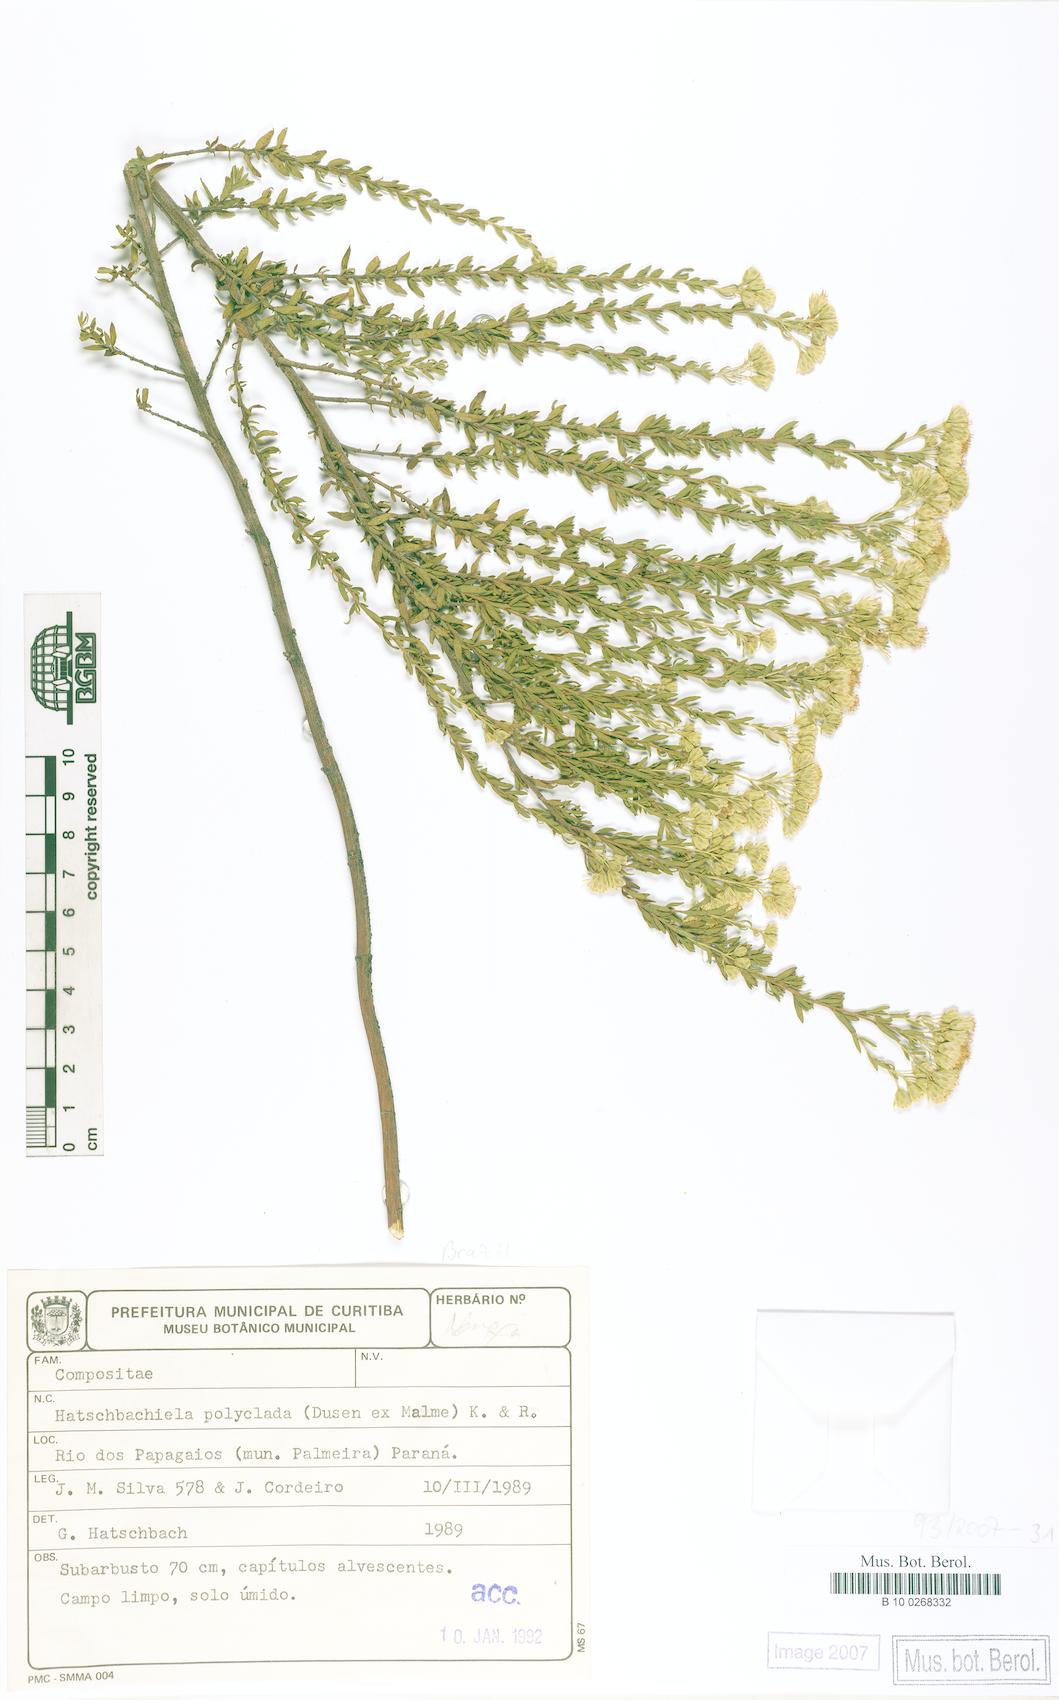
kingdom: Plantae
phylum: Tracheophyta
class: Magnoliopsida
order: Asterales
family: Asteraceae
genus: Hatschbachiella
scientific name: Hatschbachiella polyclada
